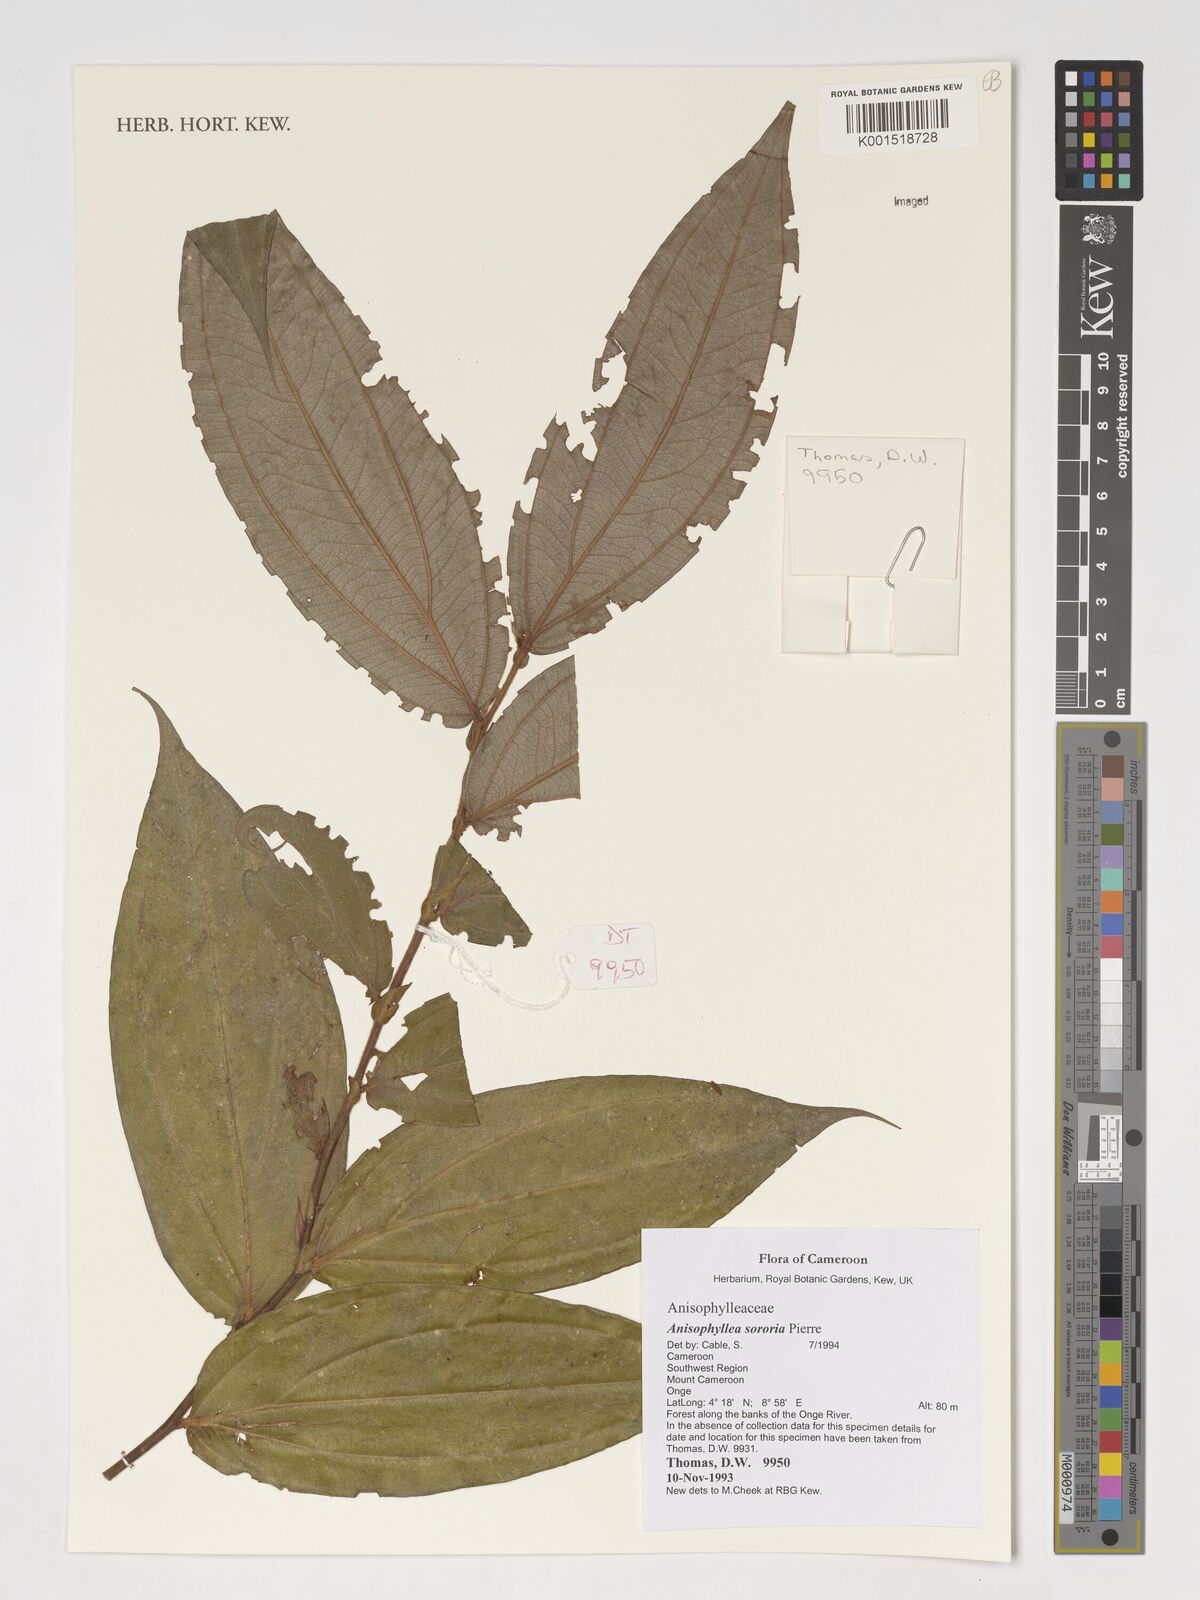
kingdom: Plantae
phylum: Tracheophyta
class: Magnoliopsida
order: Cucurbitales
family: Anisophylleaceae
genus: Anisophyllea
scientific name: Anisophyllea sororia
